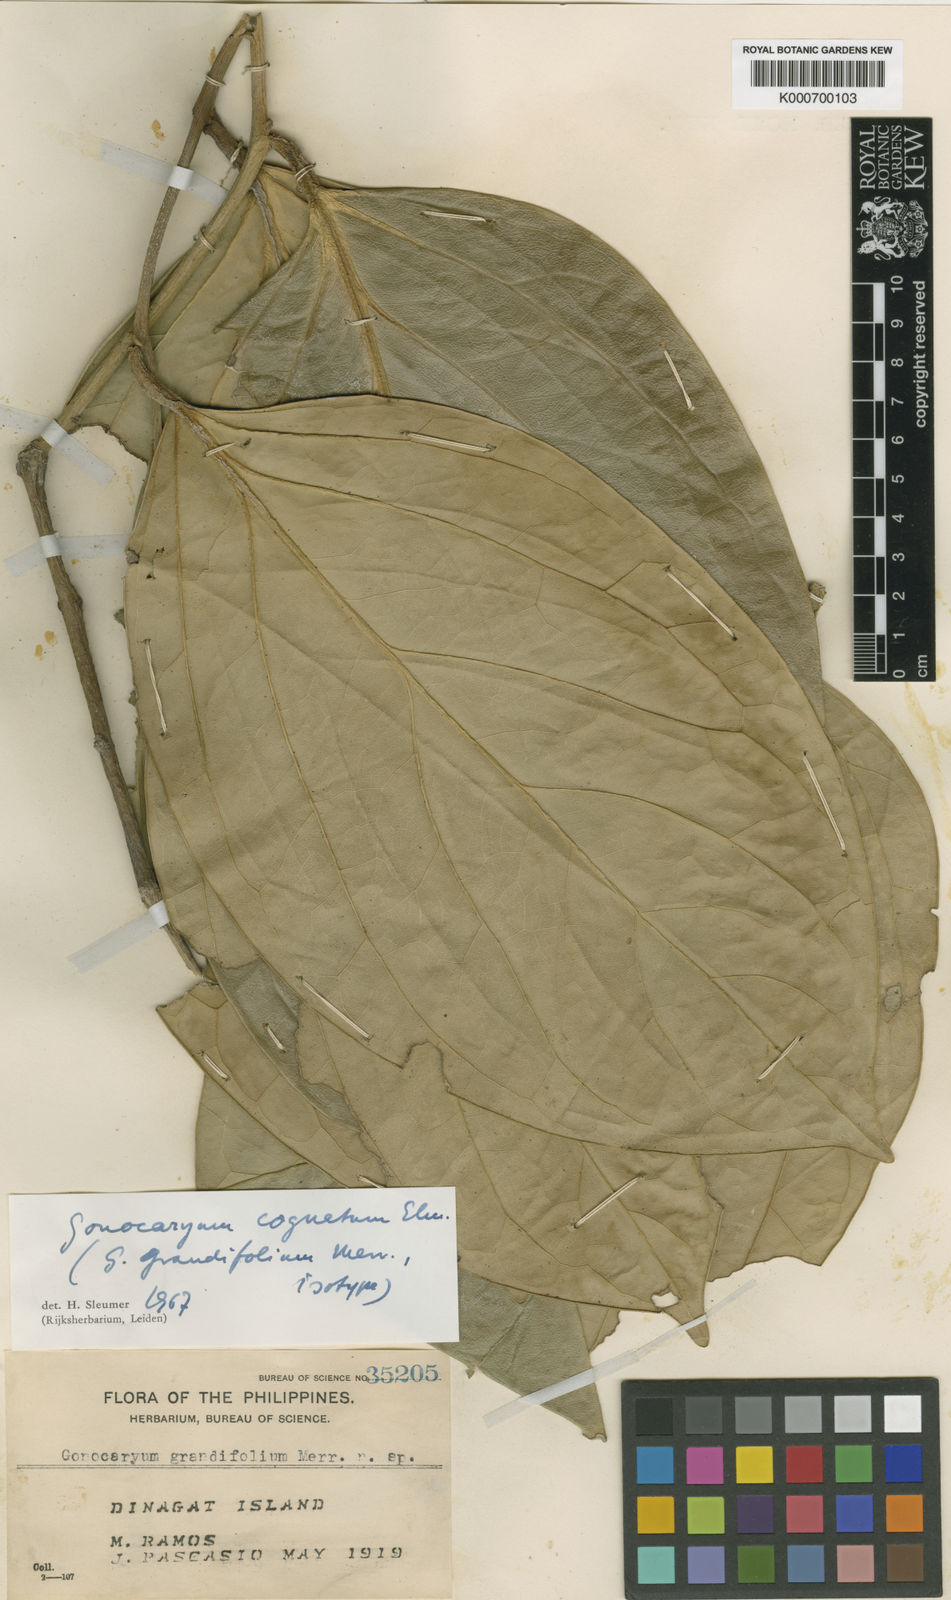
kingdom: Plantae
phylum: Tracheophyta
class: Magnoliopsida
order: Cardiopteridales
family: Cardiopteridaceae
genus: Gonocaryum
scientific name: Gonocaryum cognatum
